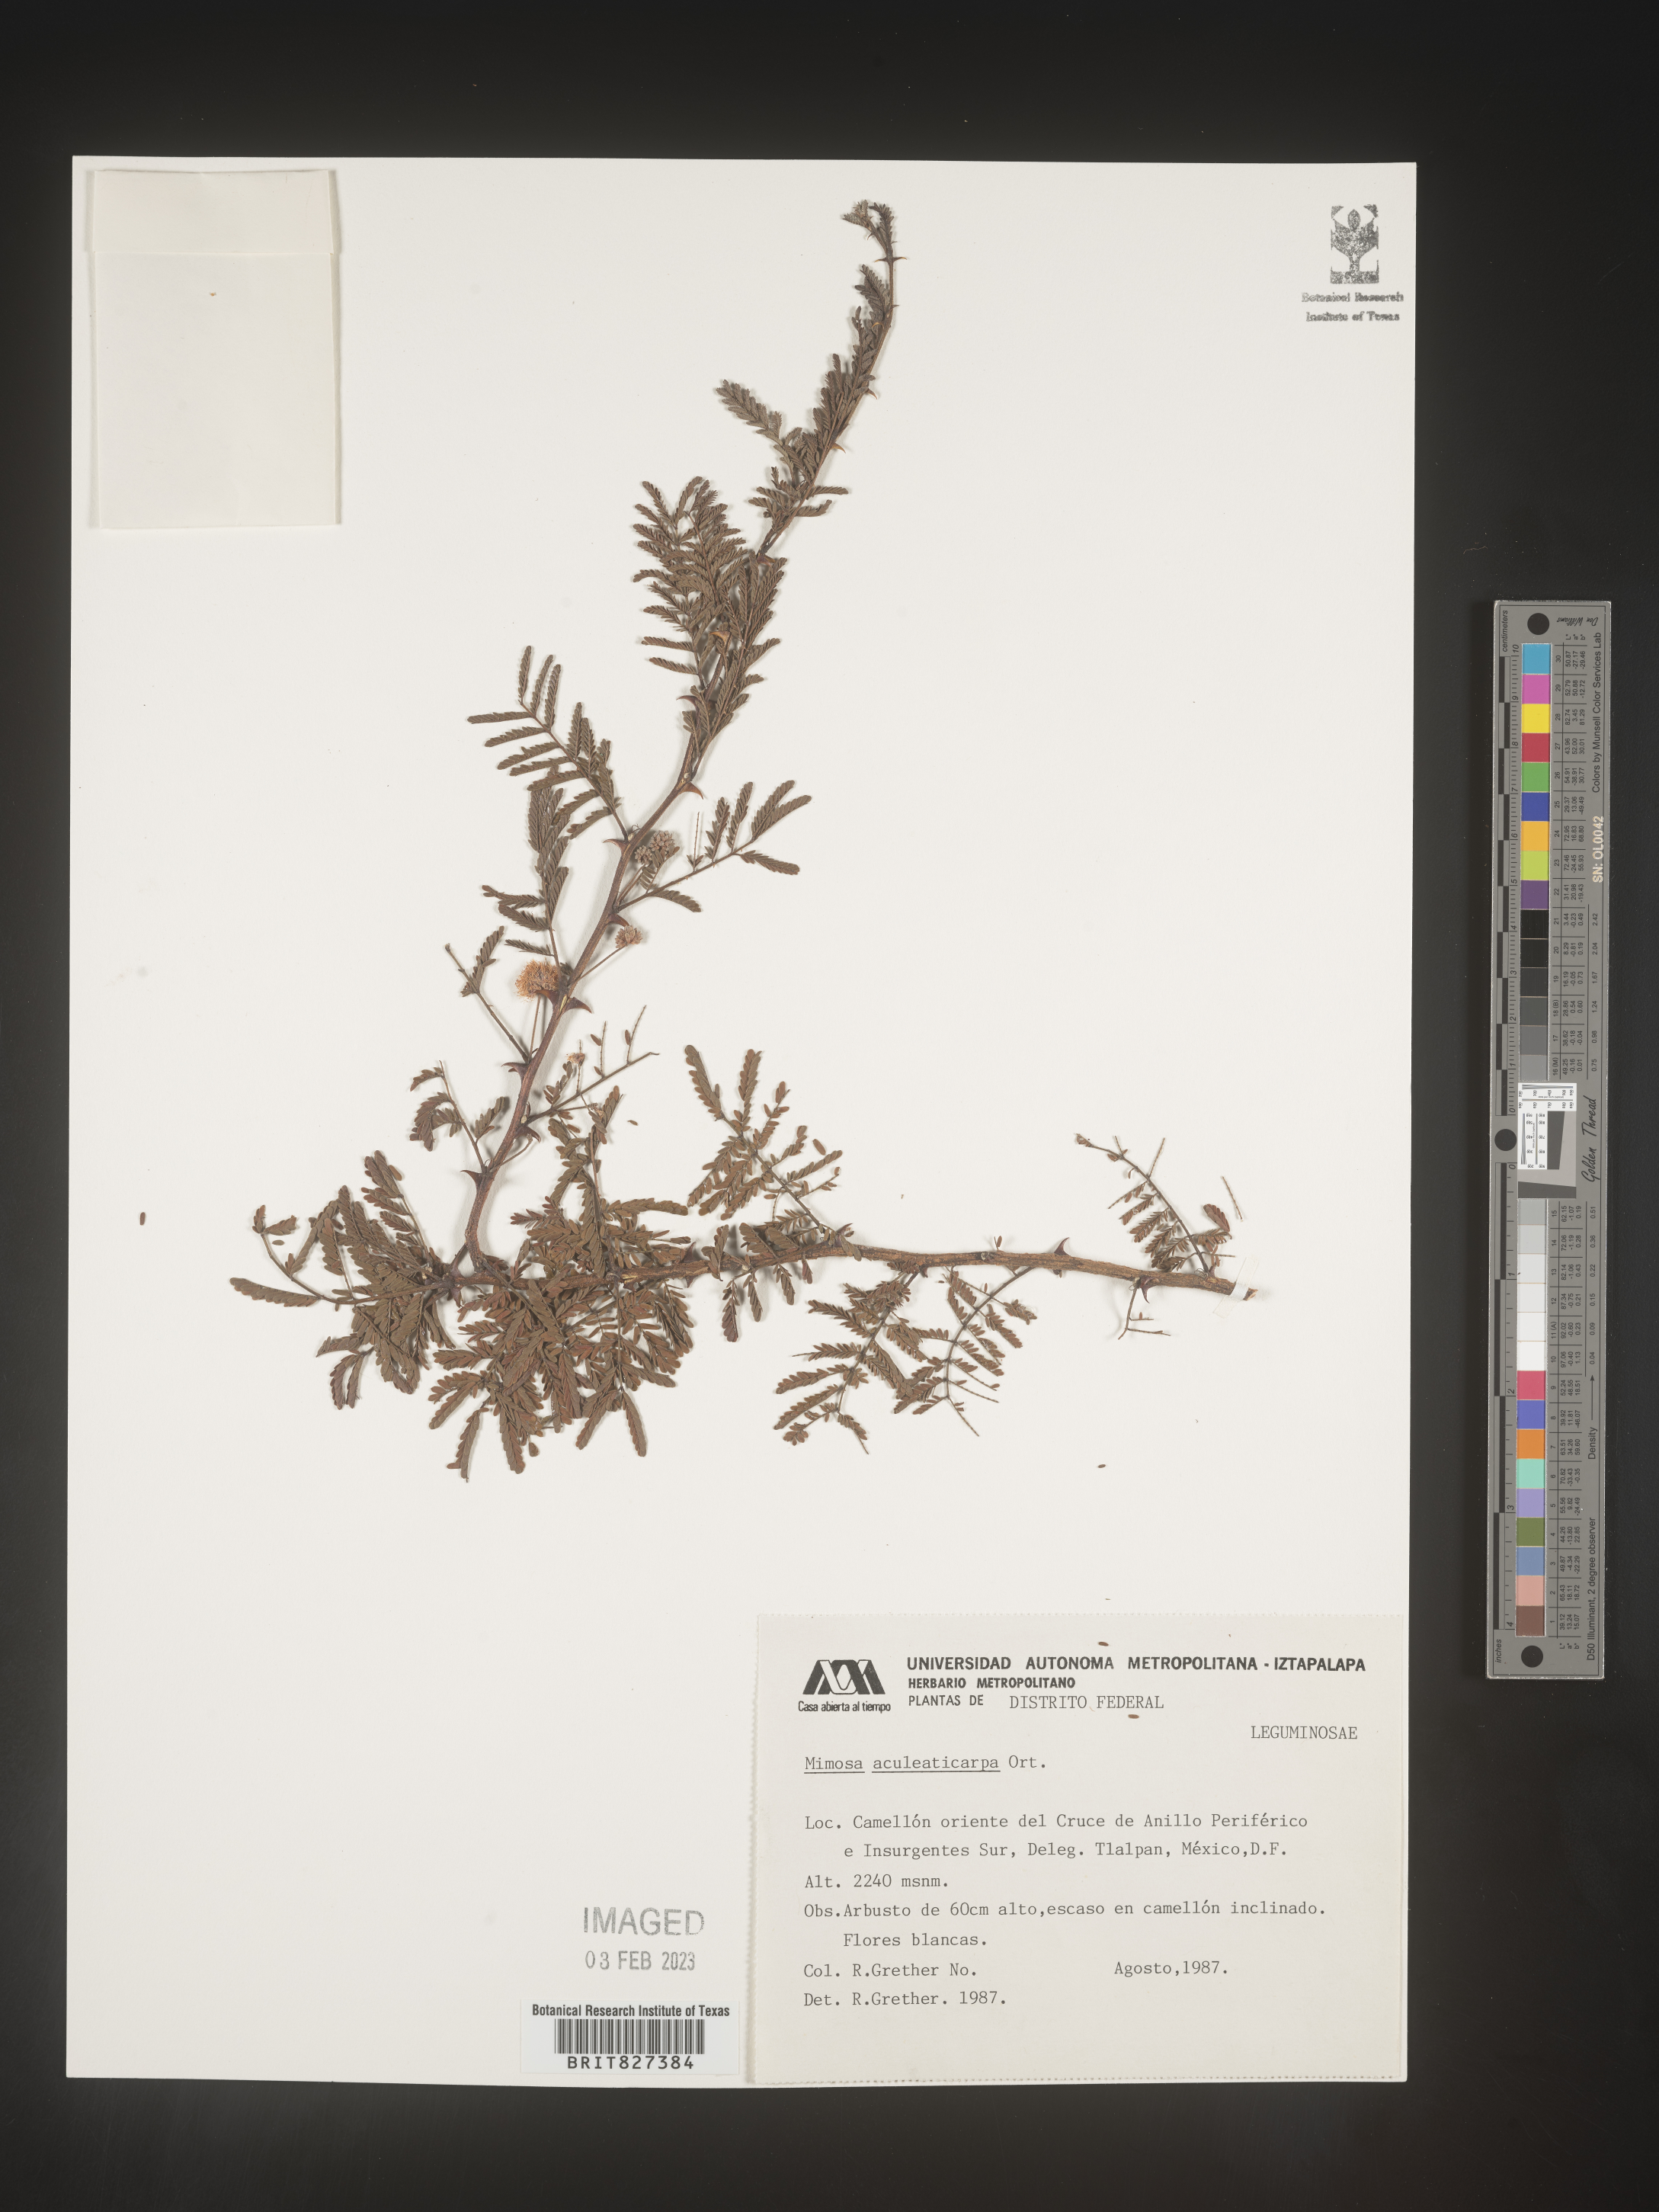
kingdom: Plantae
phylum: Tracheophyta
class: Magnoliopsida
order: Fabales
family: Fabaceae
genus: Mimosa
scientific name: Mimosa
